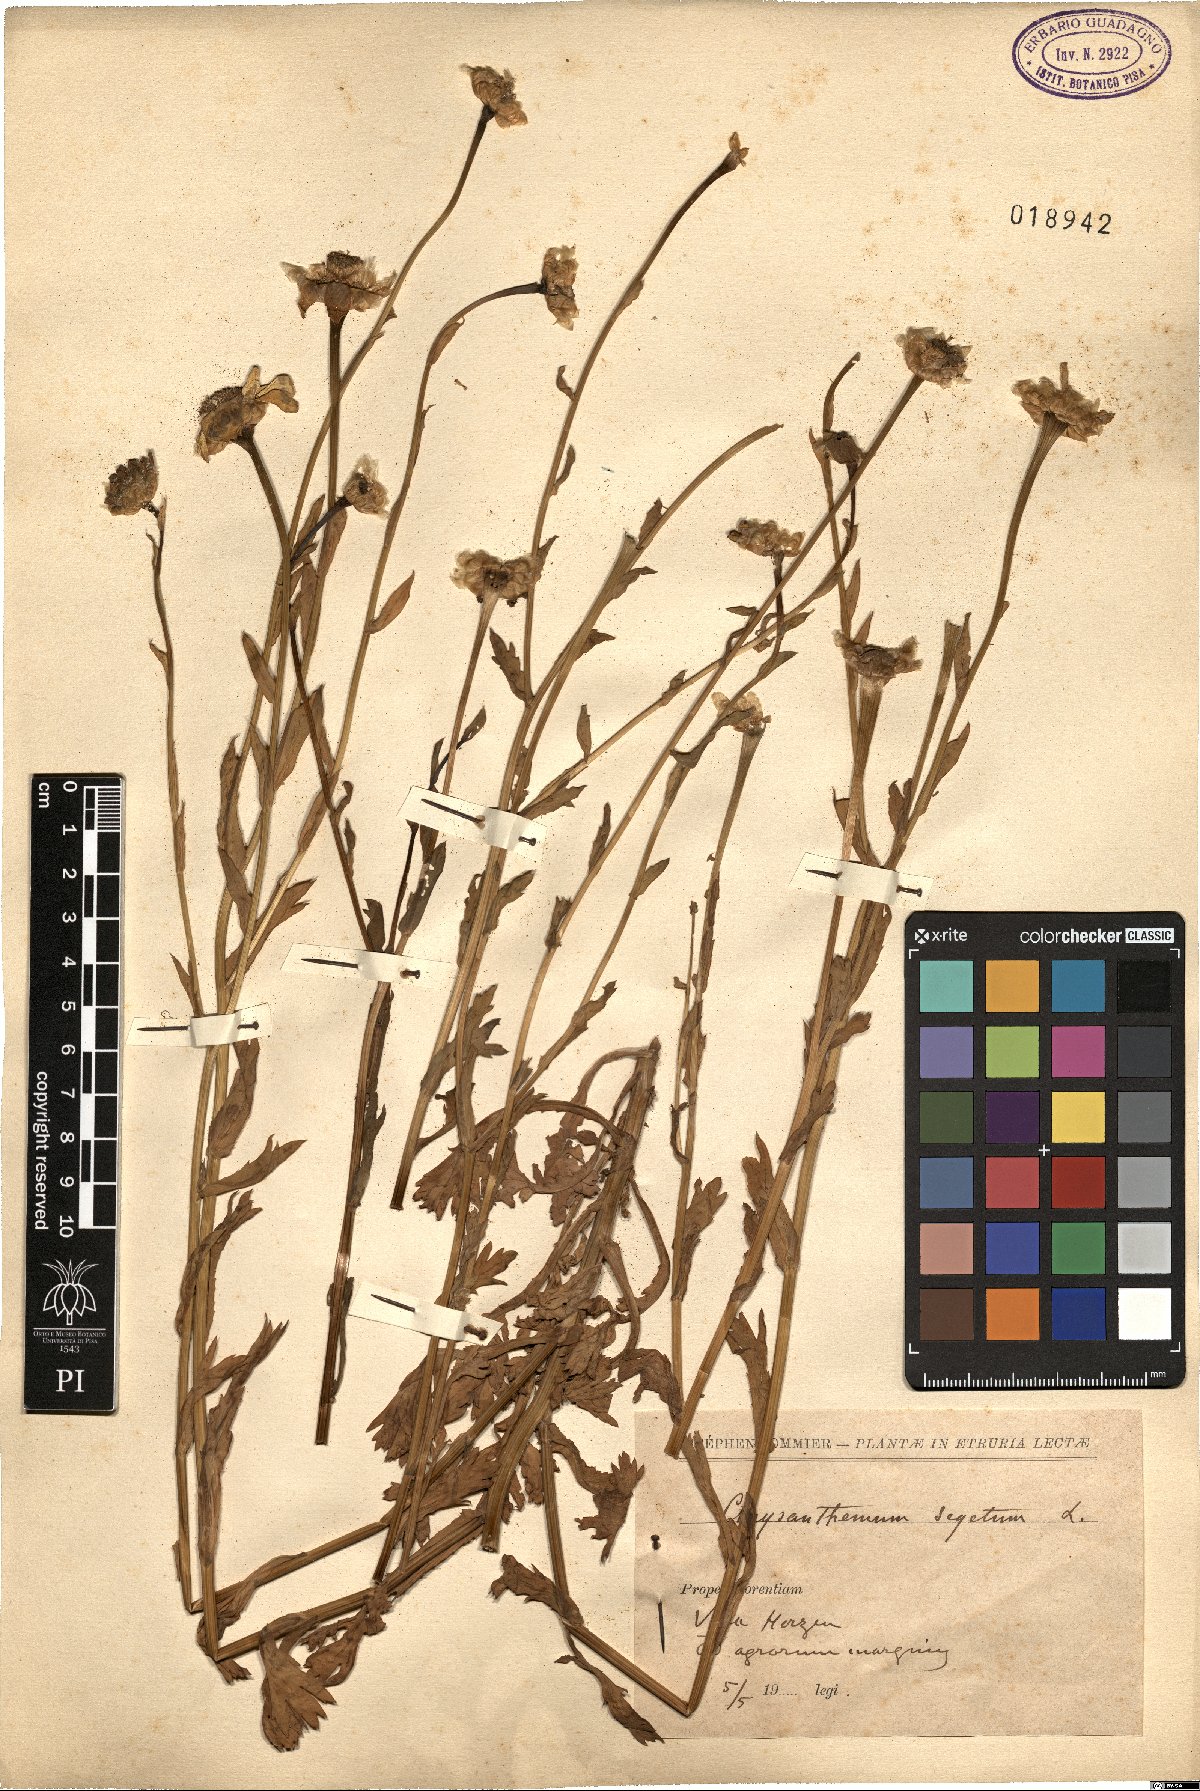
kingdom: Plantae
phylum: Tracheophyta
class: Magnoliopsida
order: Asterales
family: Asteraceae
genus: Glebionis
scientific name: Glebionis segetum
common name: Corndaisy
